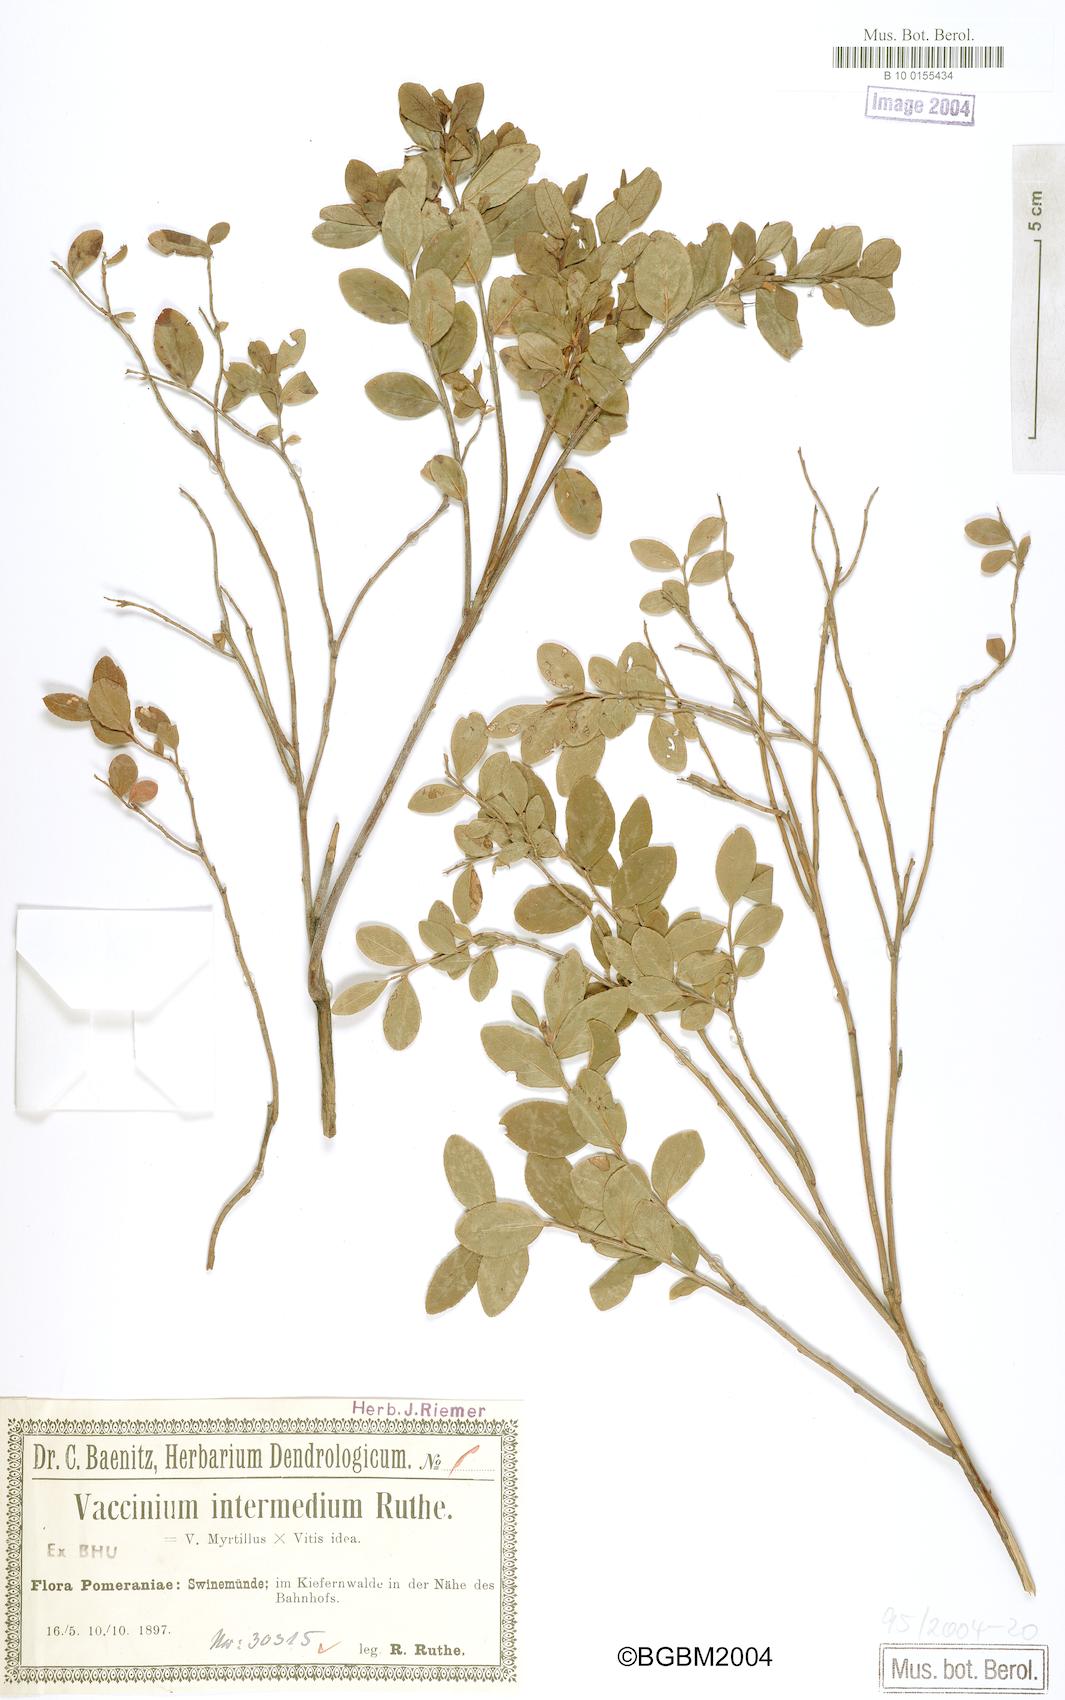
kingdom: Plantae
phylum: Tracheophyta
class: Magnoliopsida
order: Ericales
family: Ericaceae
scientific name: Ericaceae
